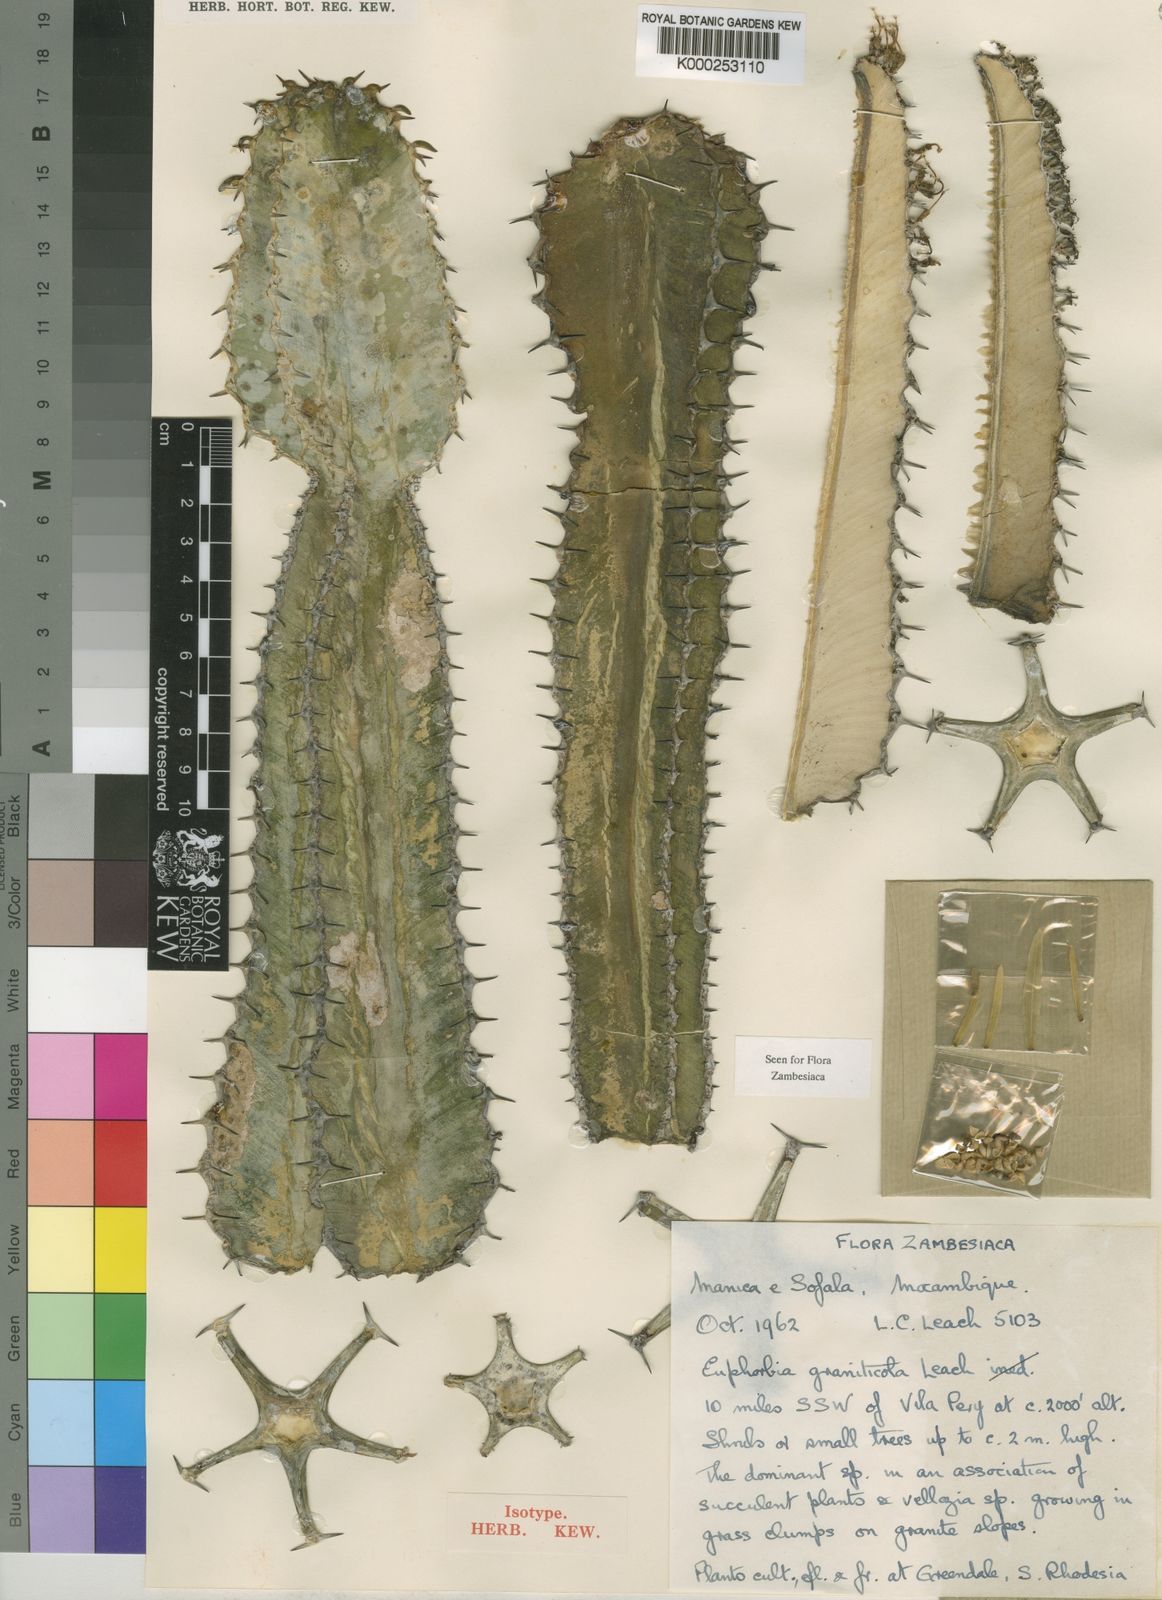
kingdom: Plantae
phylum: Tracheophyta
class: Magnoliopsida
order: Malpighiales
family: Euphorbiaceae
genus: Euphorbia
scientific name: Euphorbia graniticola
